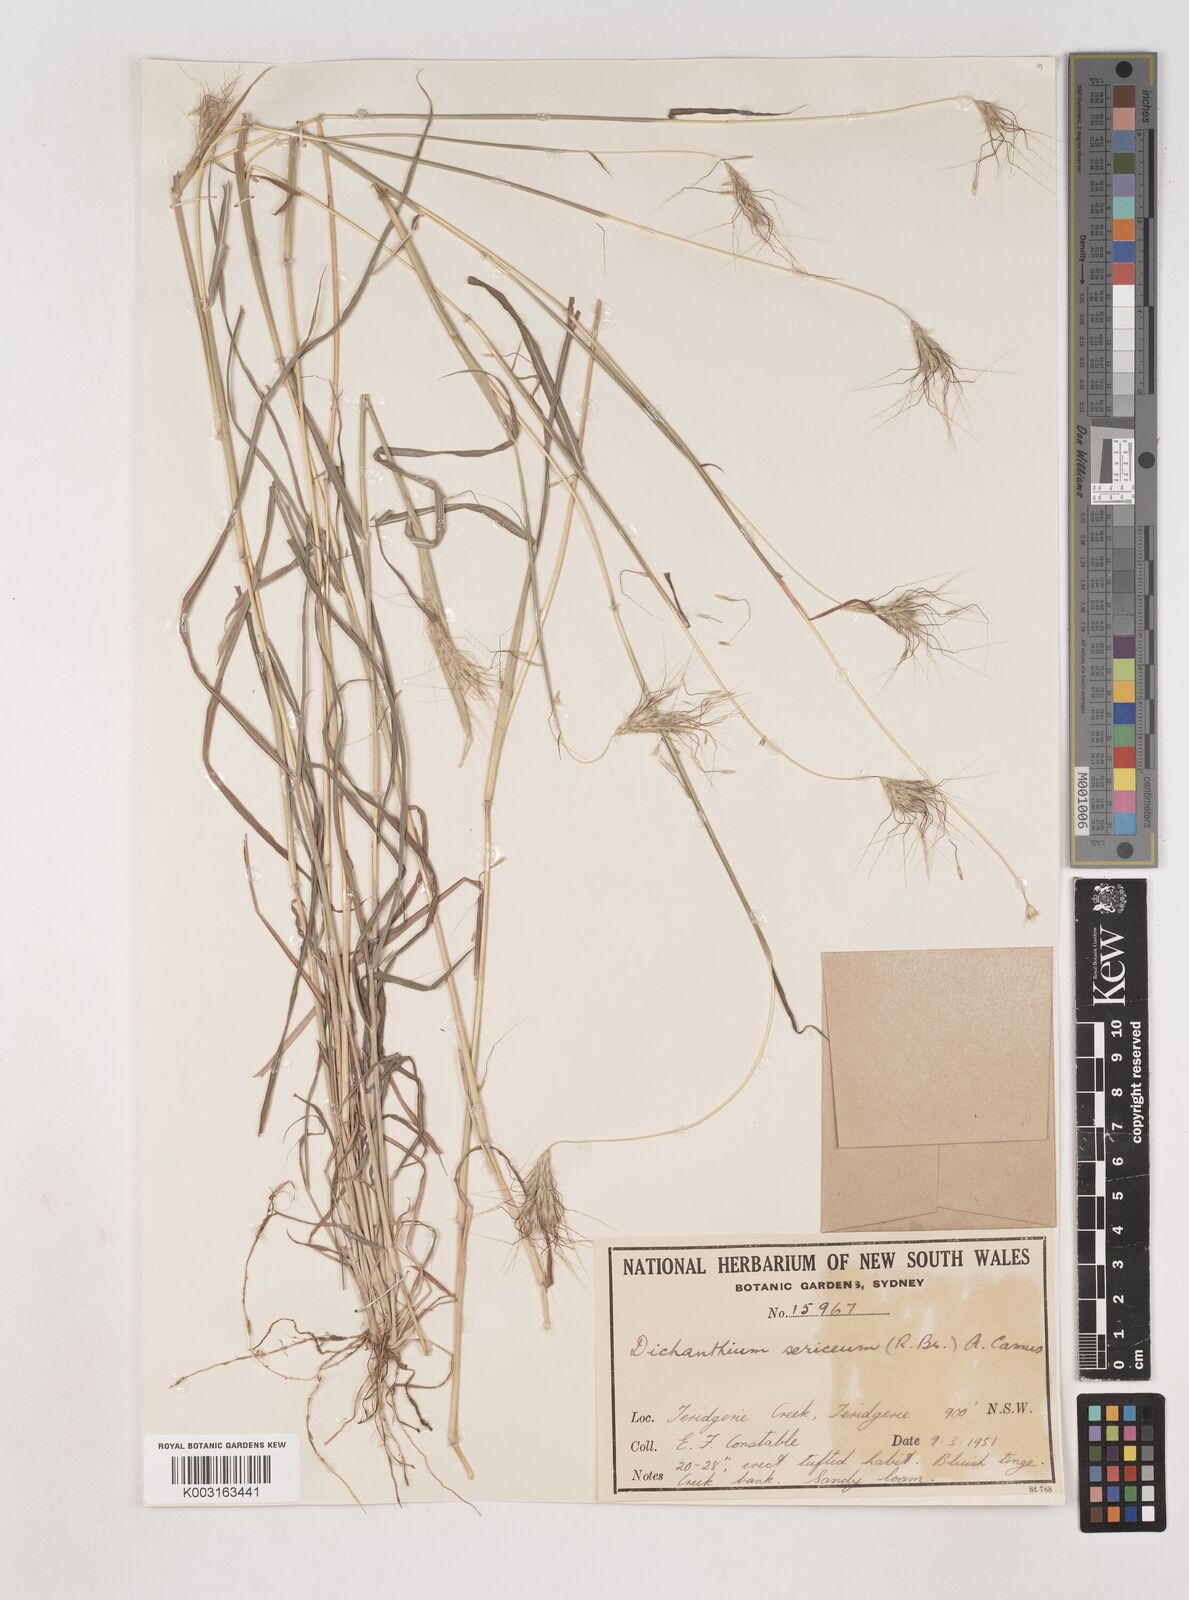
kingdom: Plantae
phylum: Tracheophyta
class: Liliopsida
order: Poales
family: Poaceae
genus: Dichanthium
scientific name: Dichanthium sericeum
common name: Silky bluestem
